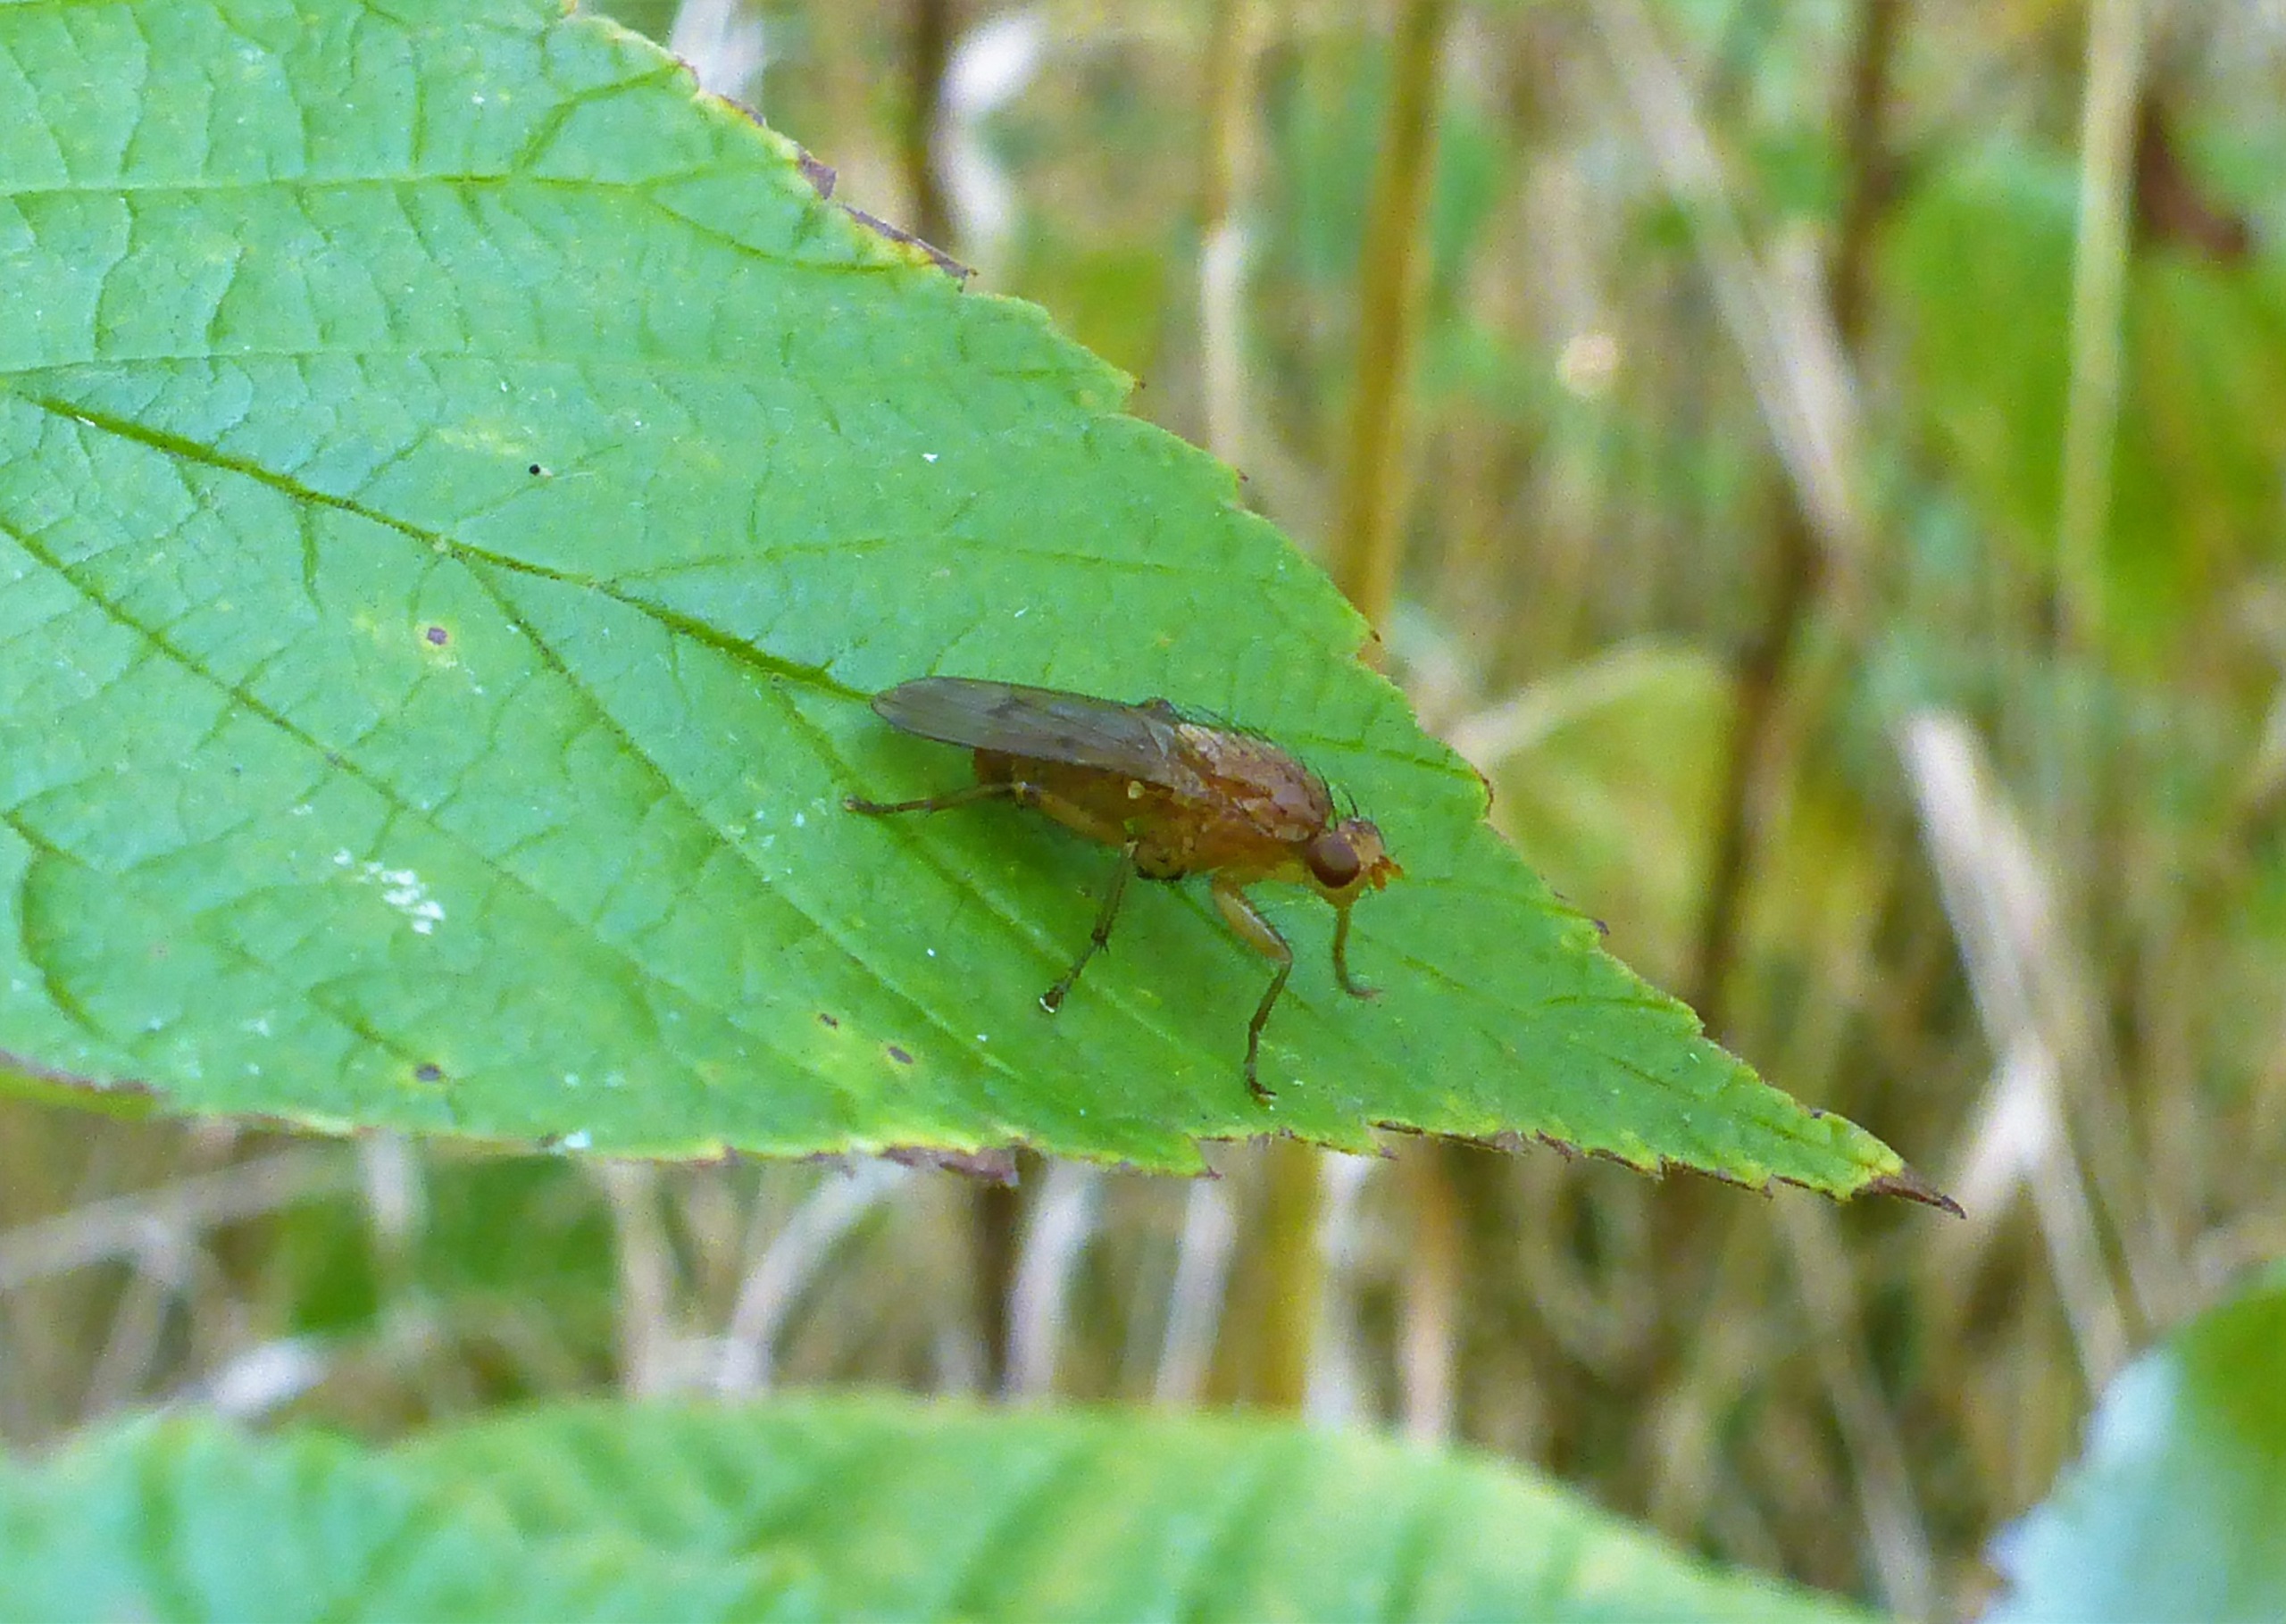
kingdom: Animalia
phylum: Arthropoda
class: Insecta
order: Diptera
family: Heleomyzidae
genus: Suillia
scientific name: Suillia
